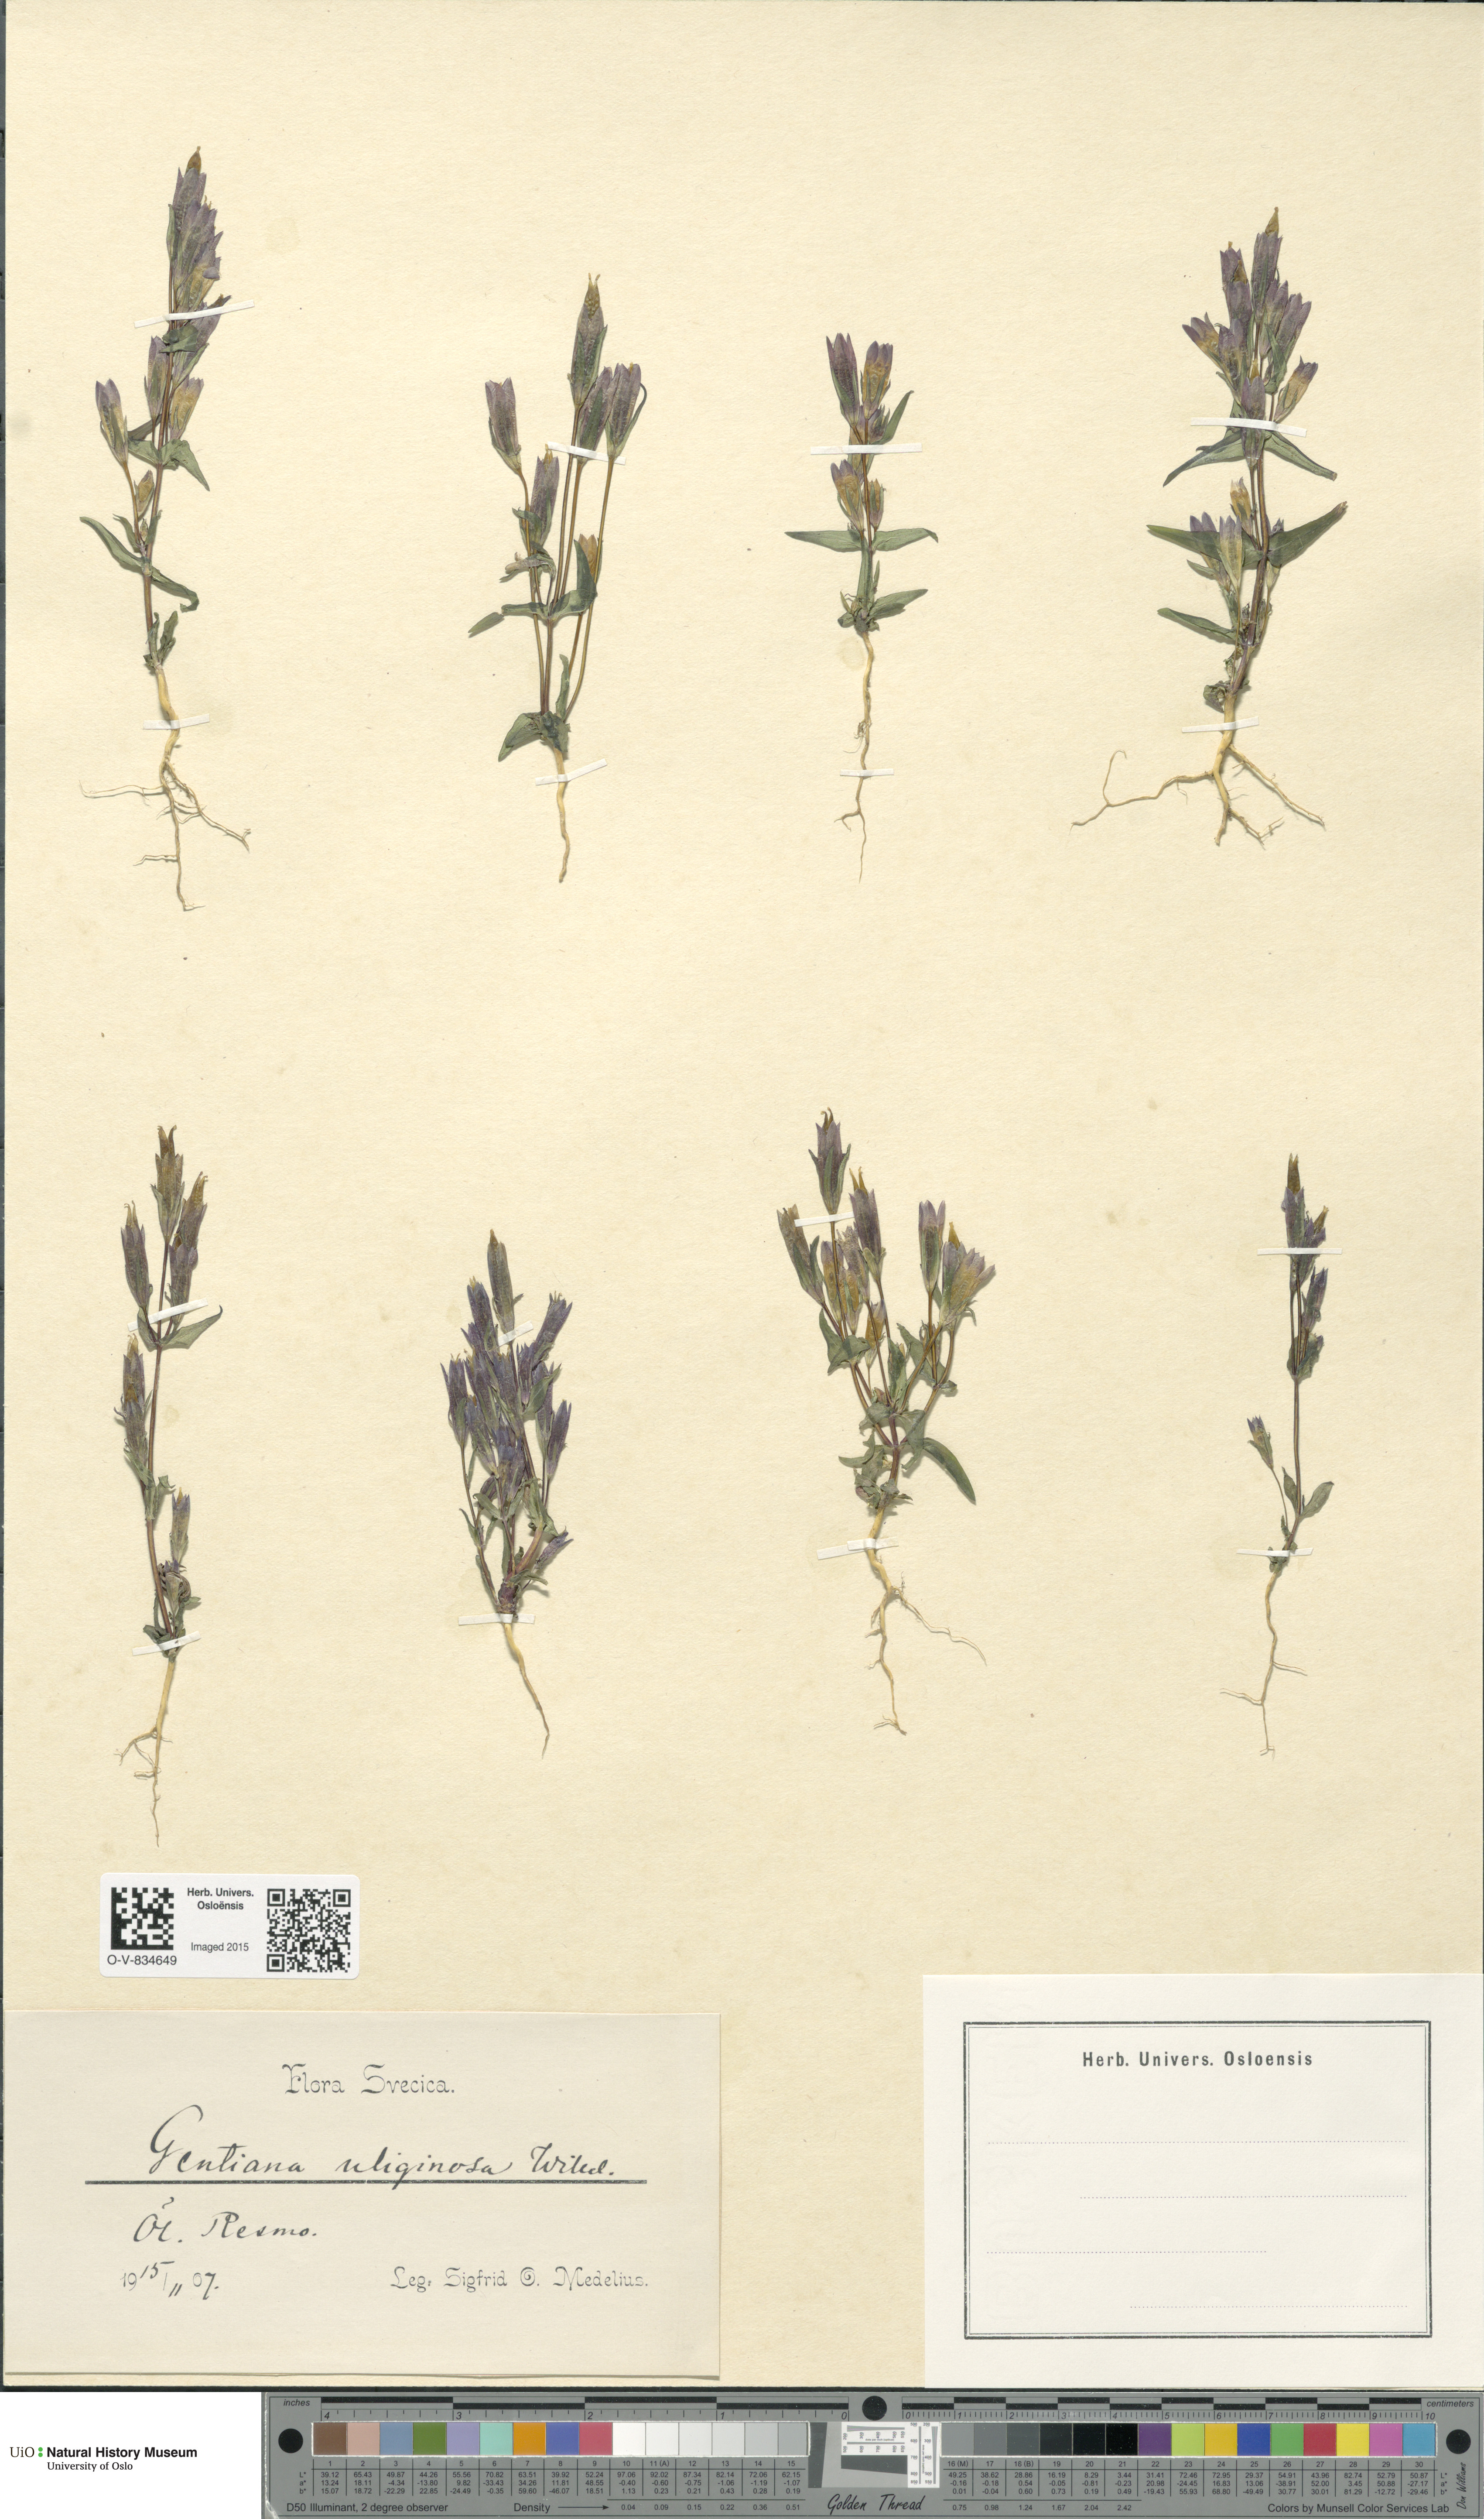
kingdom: Plantae
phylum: Tracheophyta
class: Magnoliopsida
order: Gentianales
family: Gentianaceae
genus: Gentianella
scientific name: Gentianella uliginosa
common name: Dune gentian
